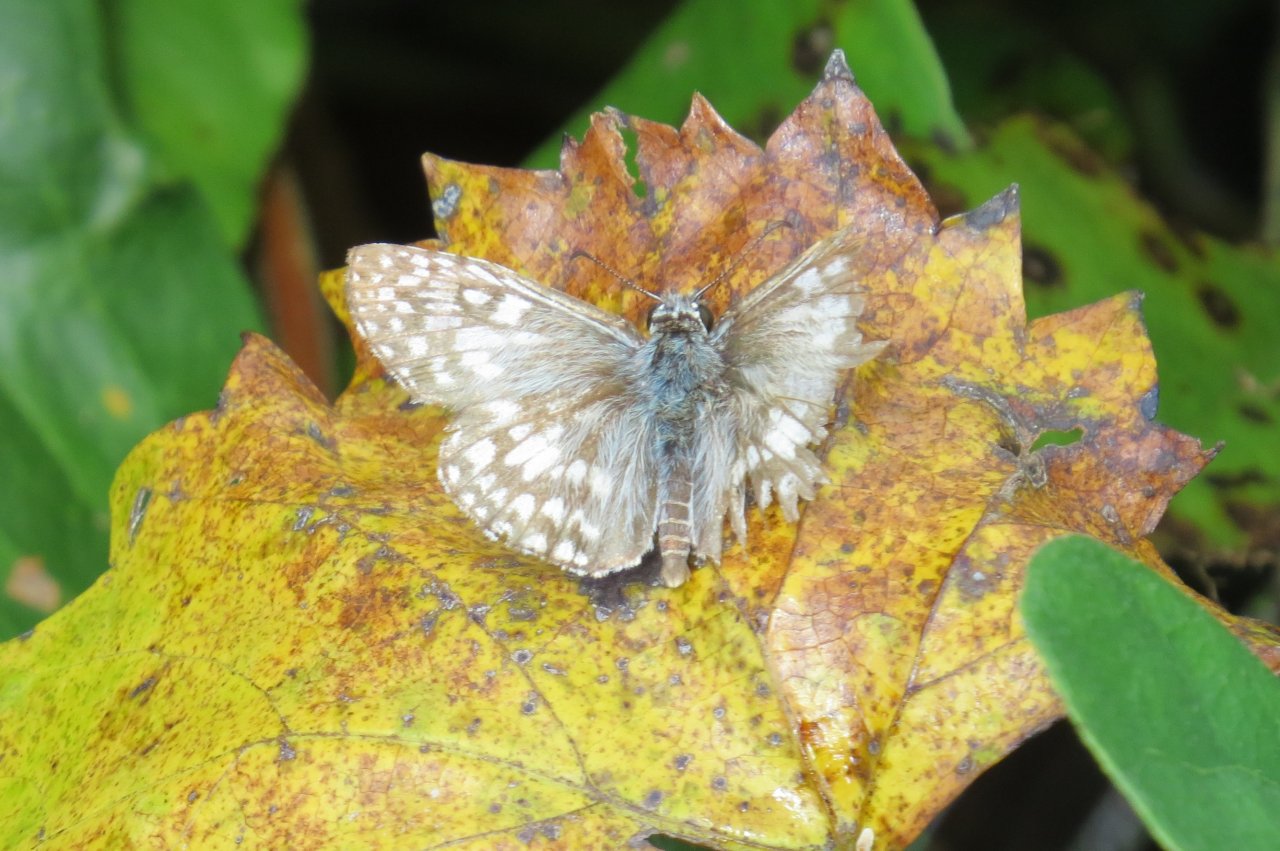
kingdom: Animalia
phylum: Arthropoda
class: Insecta
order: Lepidoptera
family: Hesperiidae
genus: Pyrgus
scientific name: Pyrgus oileus
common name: Tropical Checkered-Skipper
